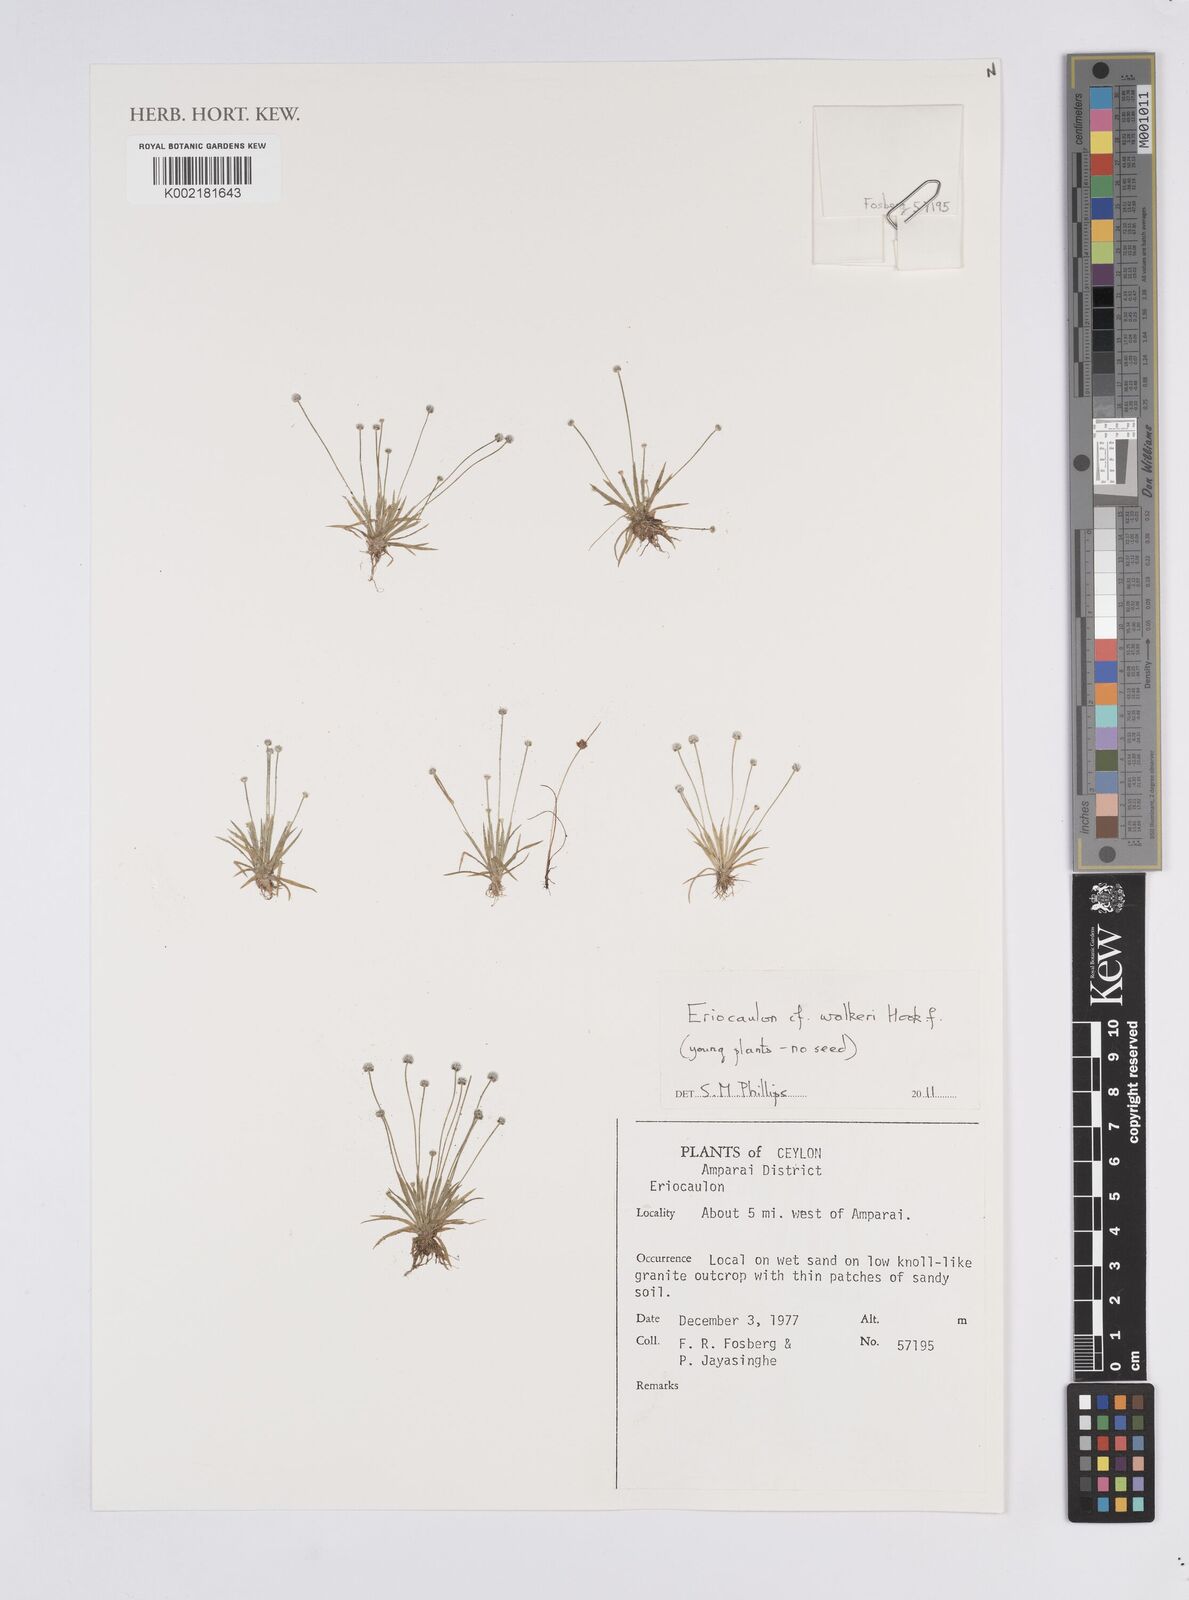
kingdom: Plantae
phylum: Tracheophyta
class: Liliopsida
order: Poales
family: Eriocaulaceae
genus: Eriocaulon
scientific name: Eriocaulon walkeri
